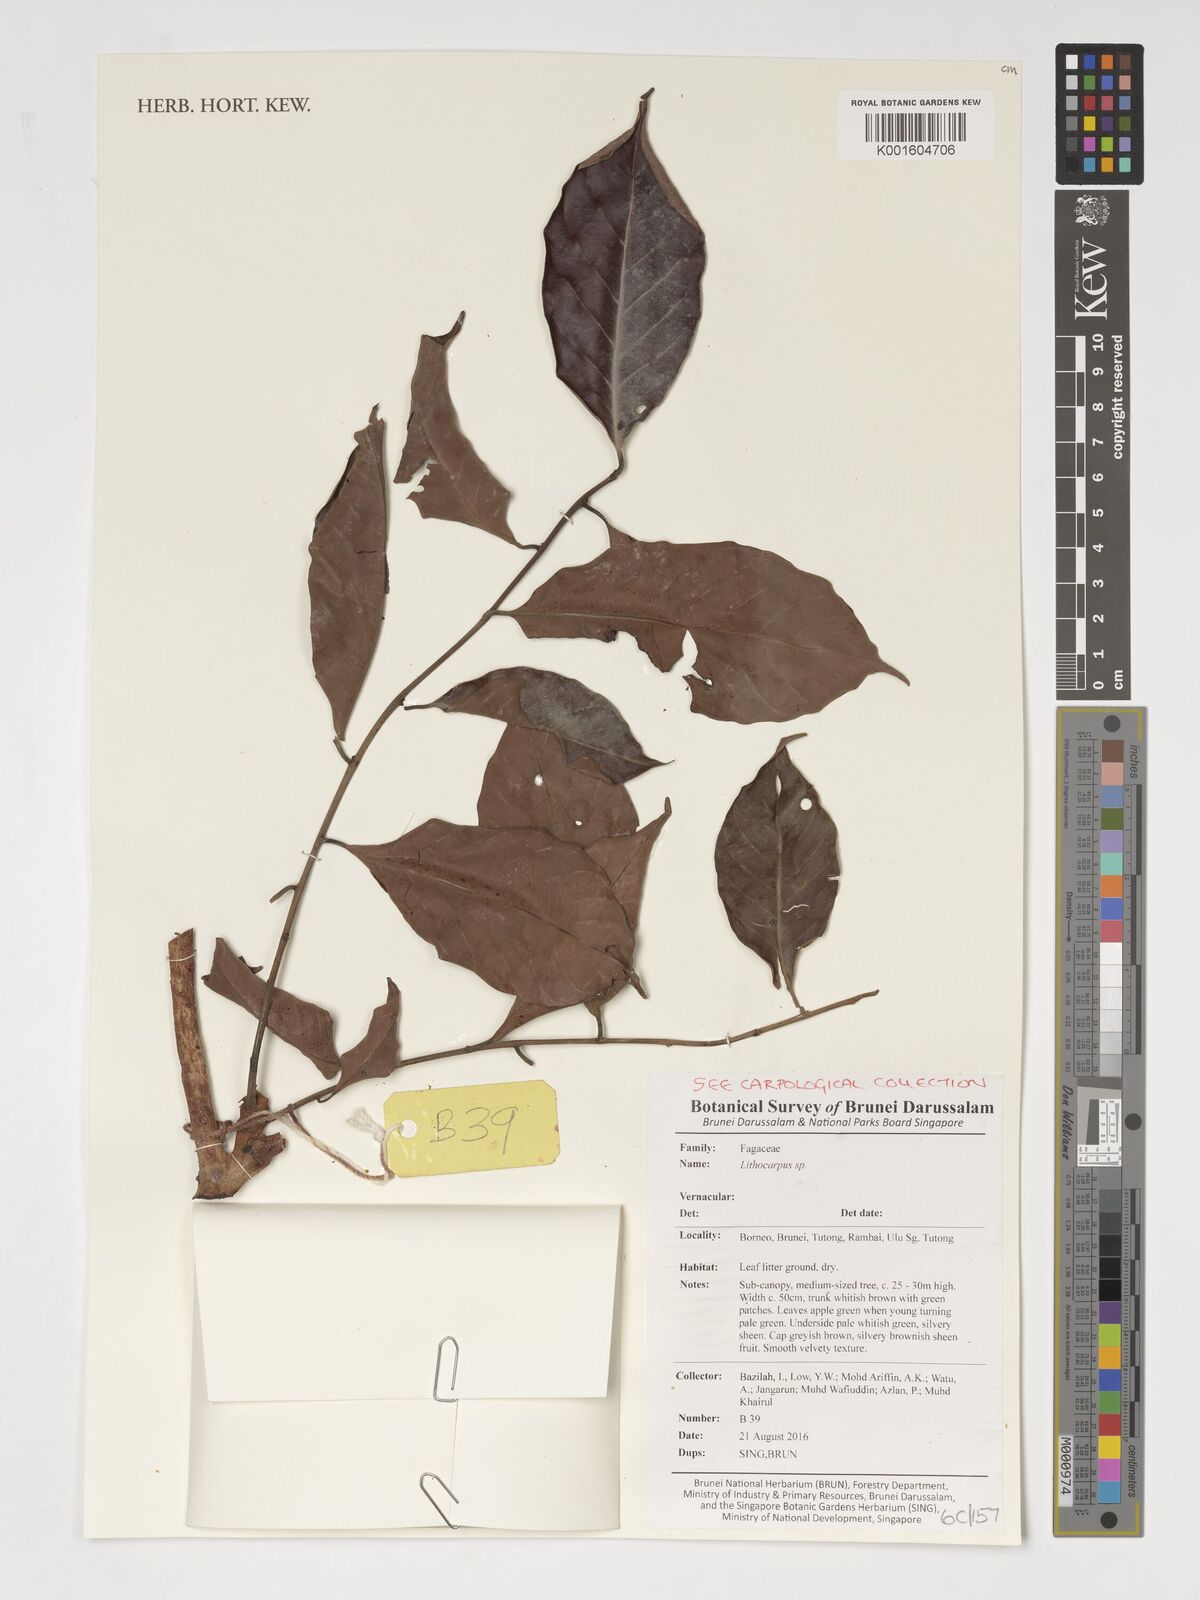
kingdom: Plantae
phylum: Tracheophyta
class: Magnoliopsida
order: Fagales
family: Fagaceae
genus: Lithocarpus
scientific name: Lithocarpus
